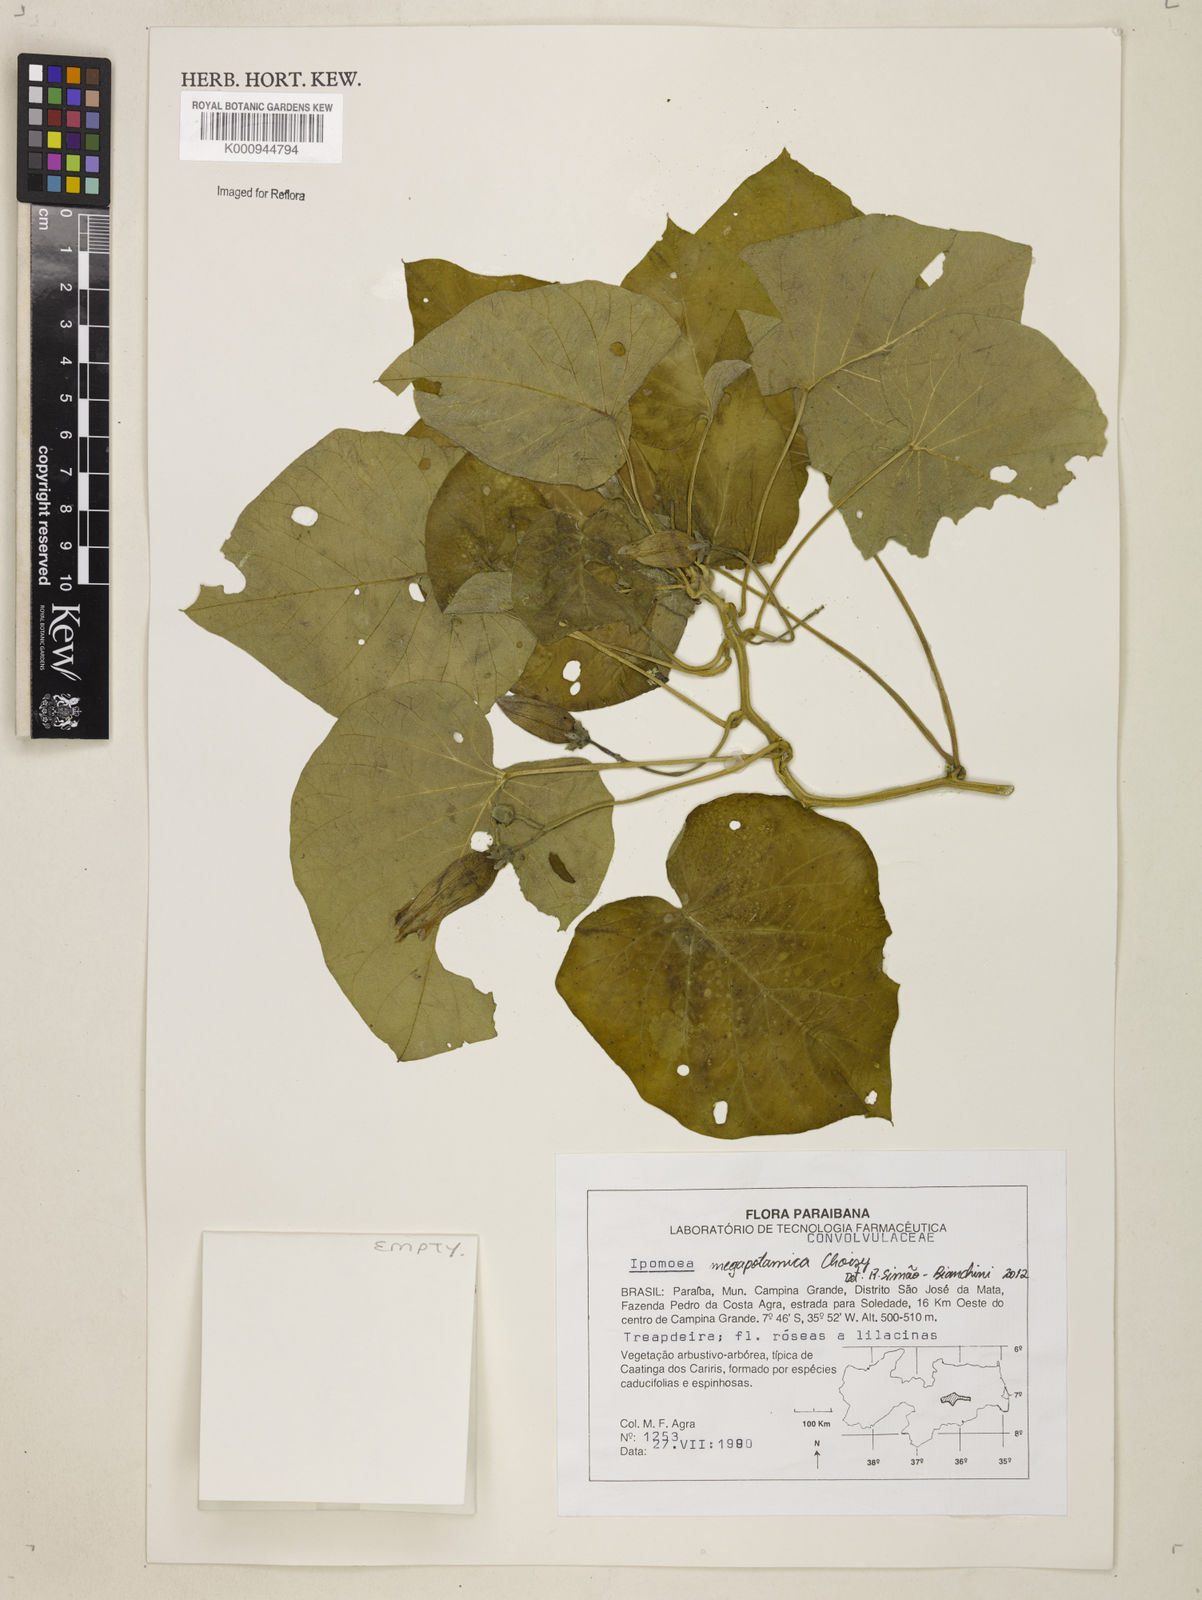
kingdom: Plantae
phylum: Tracheophyta
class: Magnoliopsida
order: Solanales
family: Convolvulaceae
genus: Ipomoea
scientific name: Ipomoea megapotamica
